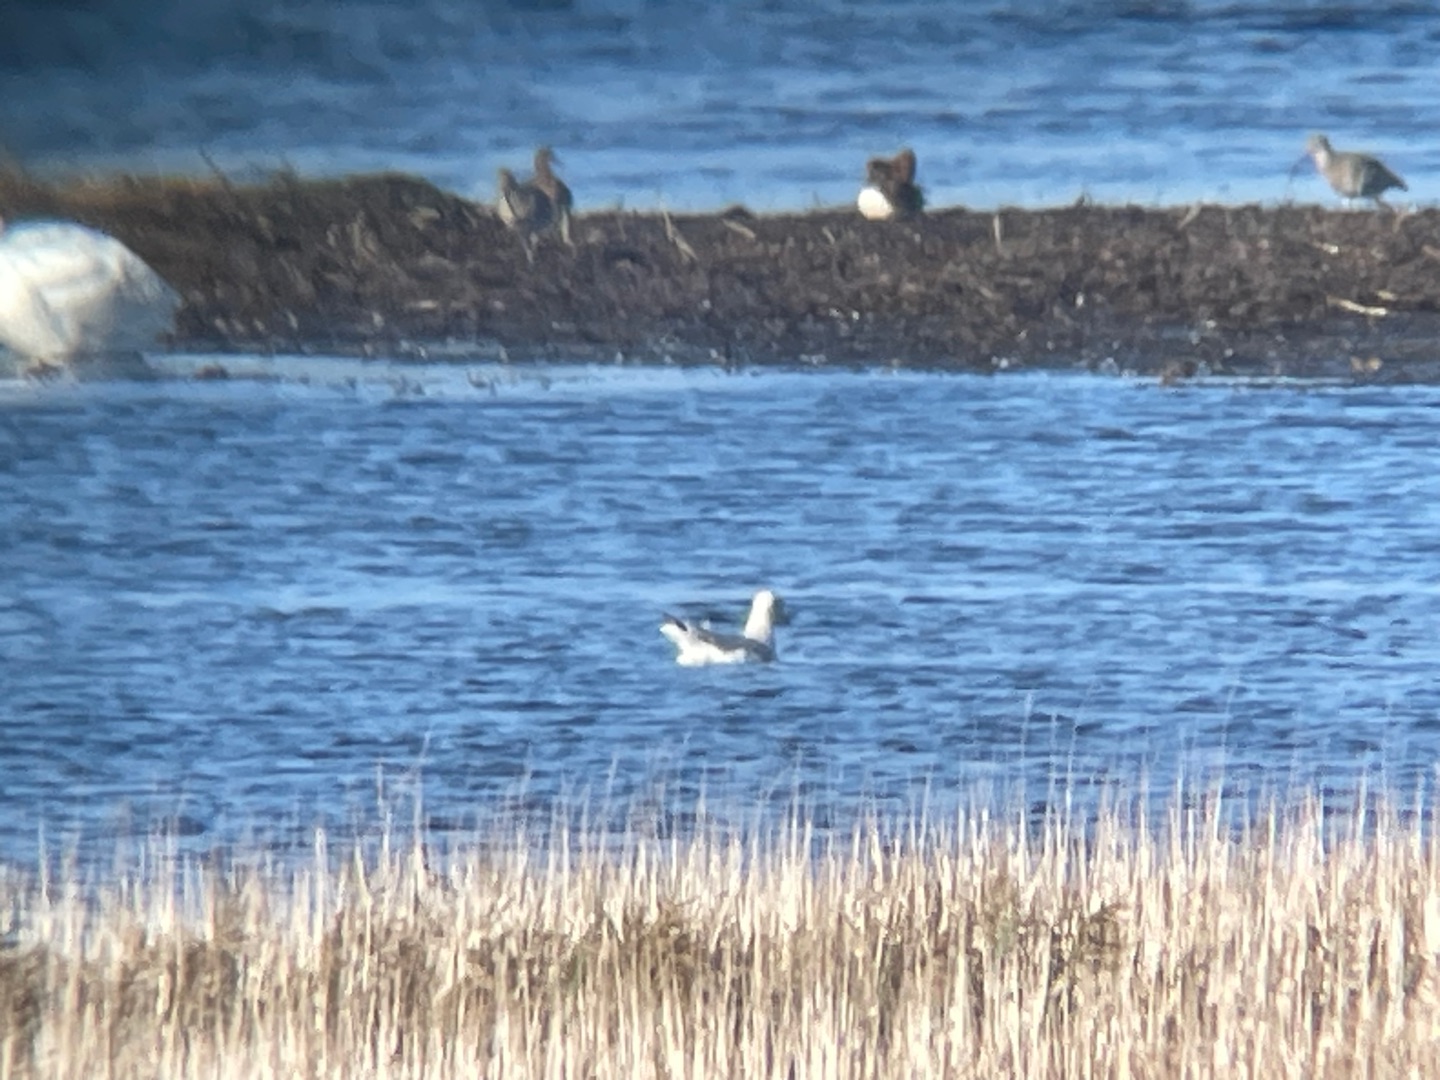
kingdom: Animalia
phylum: Chordata
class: Aves
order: Charadriiformes
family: Laridae
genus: Larus
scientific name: Larus argentatus
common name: Sølvmåge
